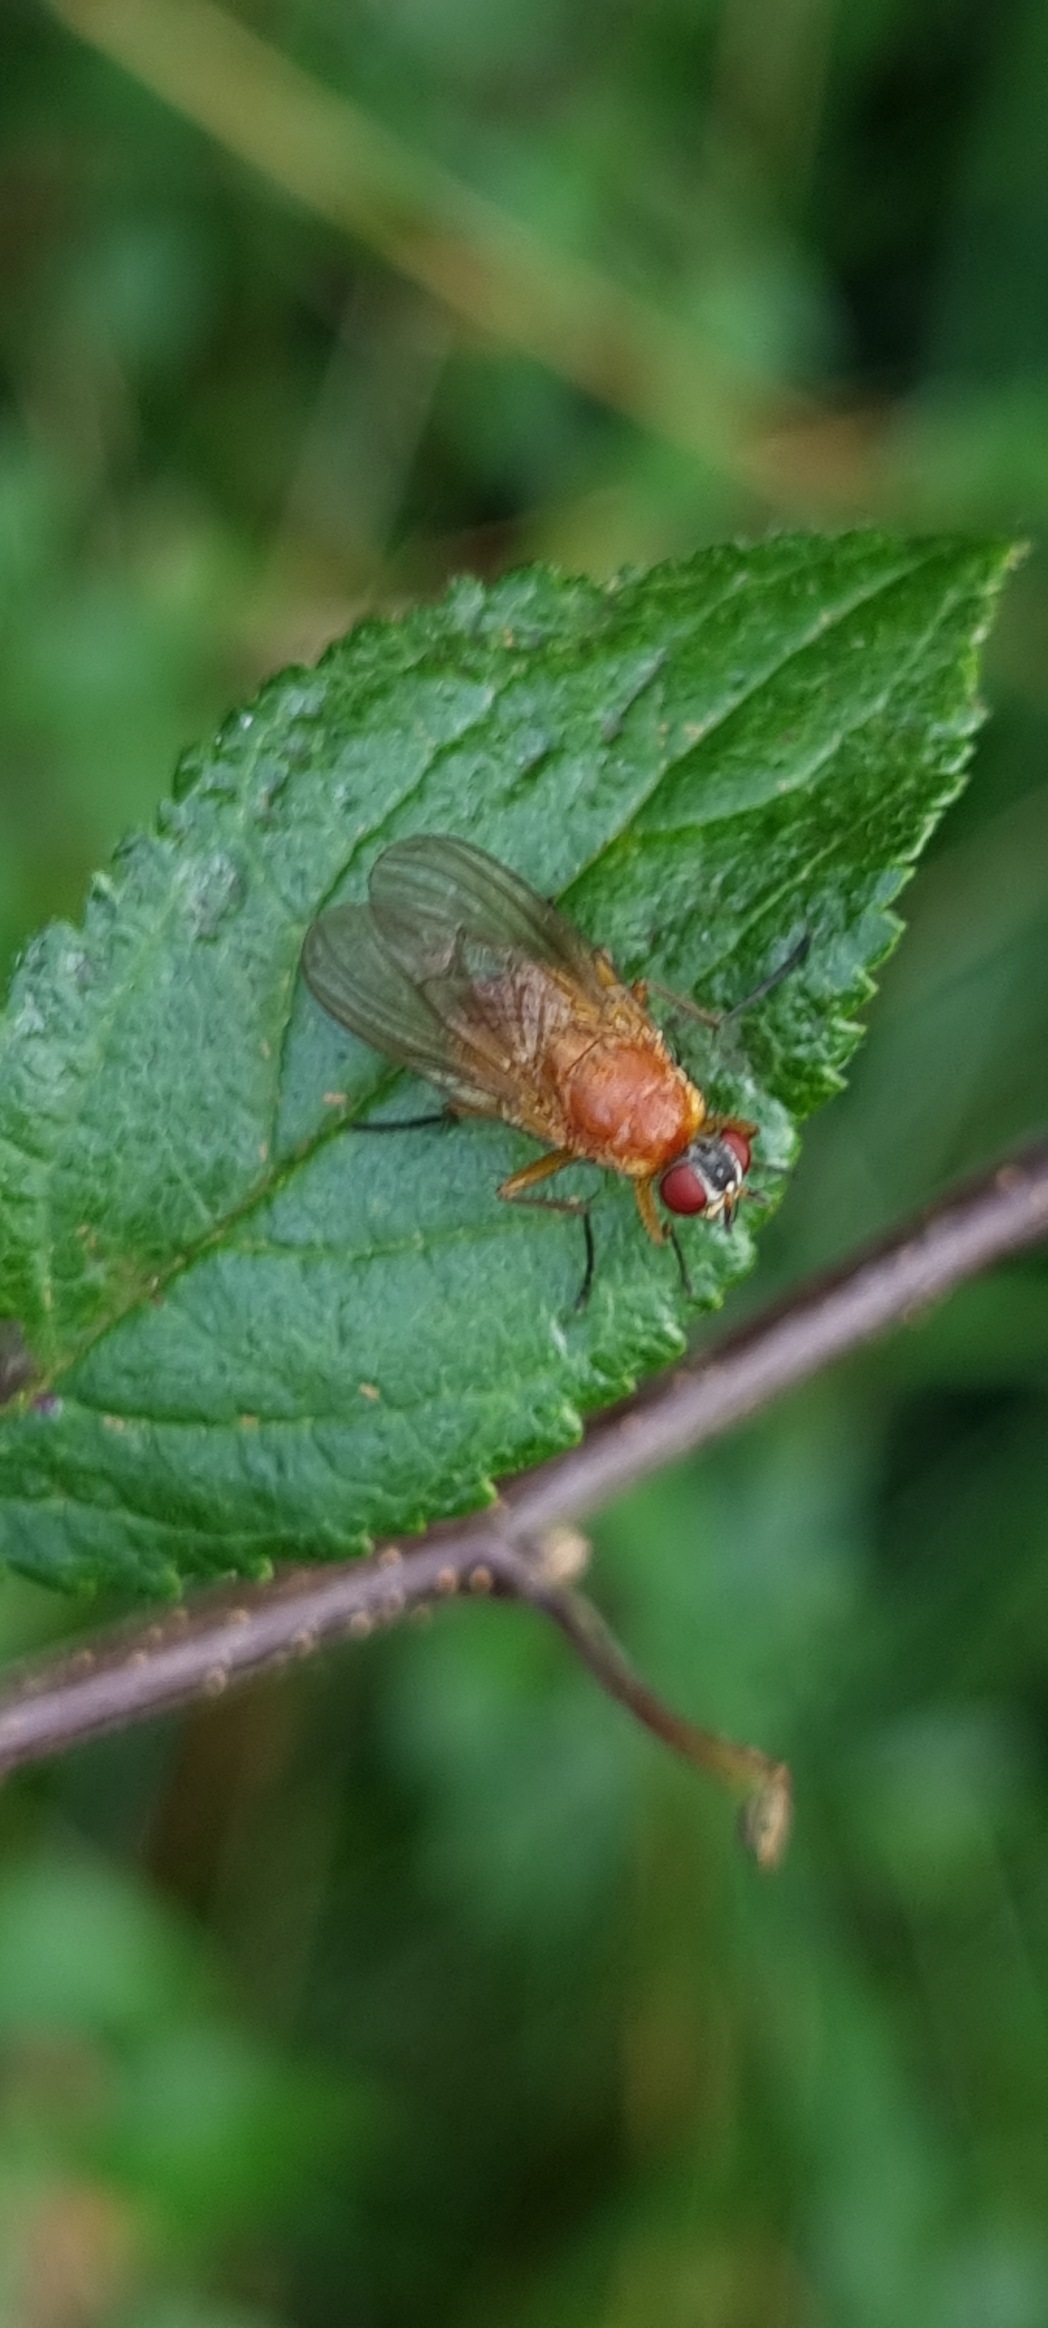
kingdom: Animalia
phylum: Arthropoda
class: Insecta
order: Diptera
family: Muscidae
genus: Thricops
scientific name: Thricops diaphanus
